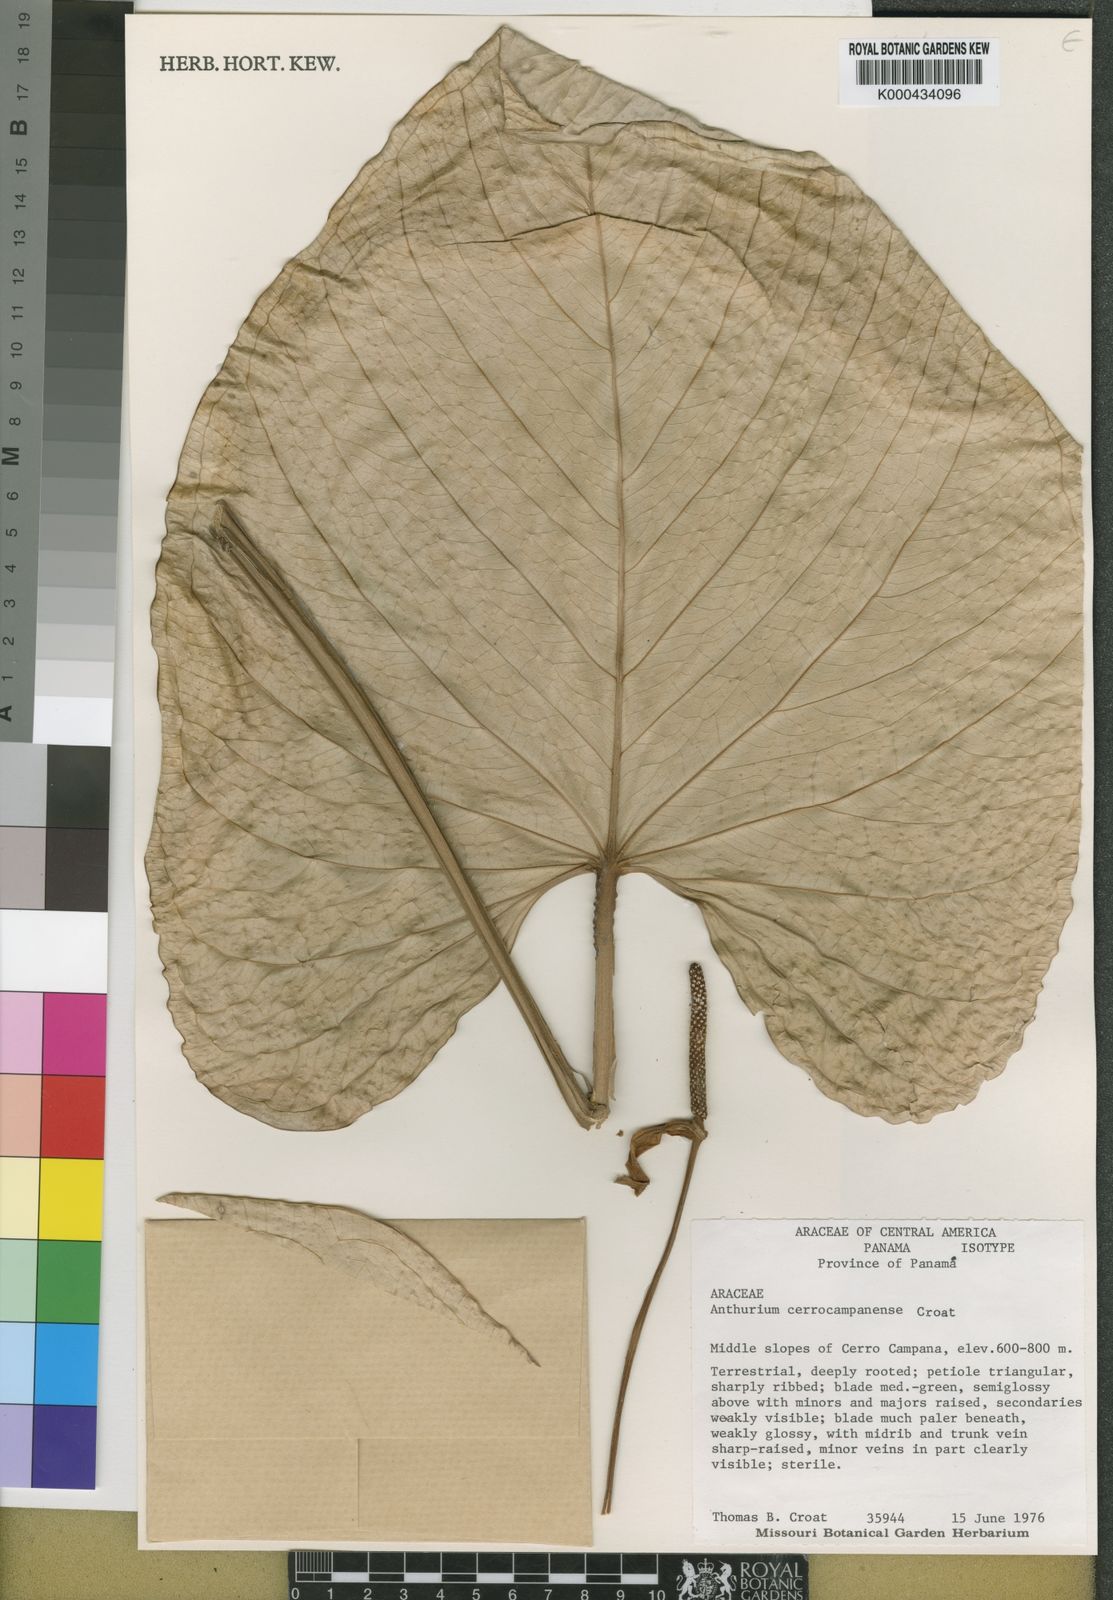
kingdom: Plantae
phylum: Tracheophyta
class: Liliopsida
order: Alismatales
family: Araceae
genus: Anthurium
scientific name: Anthurium cerrocampanense
